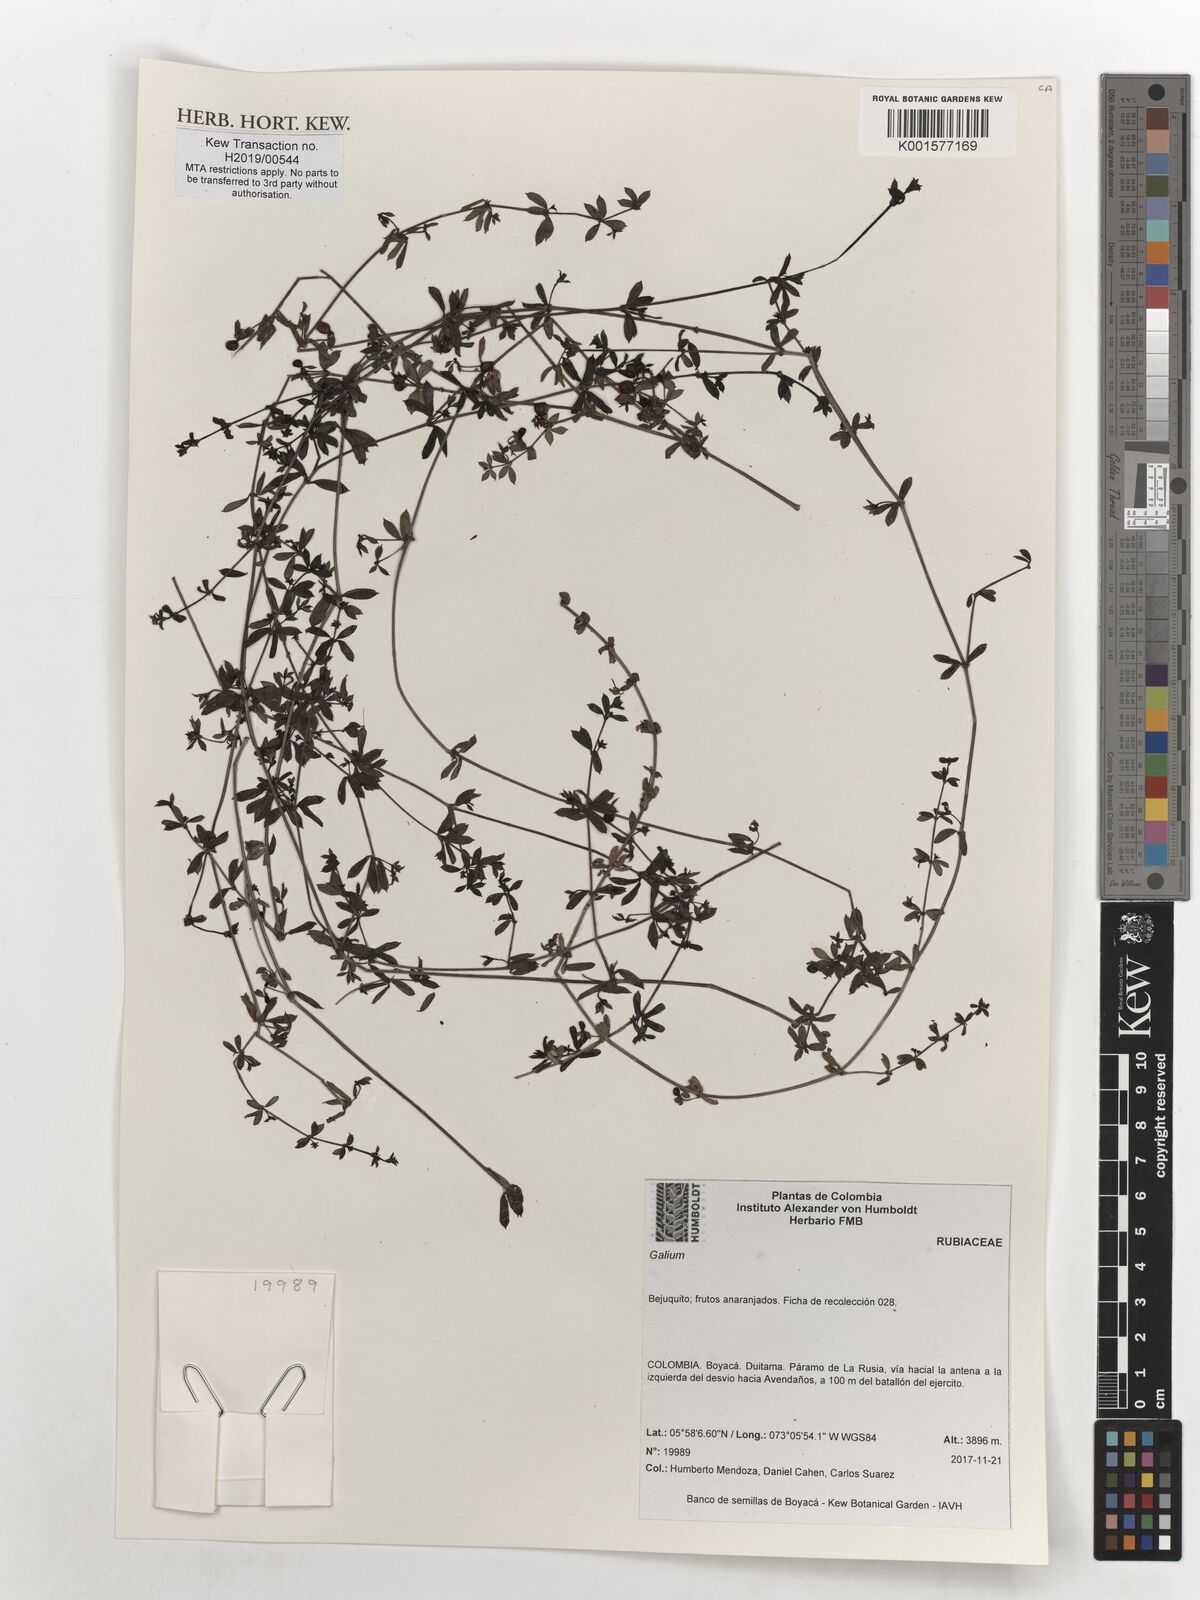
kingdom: Plantae
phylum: Tracheophyta
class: Magnoliopsida
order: Gentianales
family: Rubiaceae
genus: Galium
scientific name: Galium
